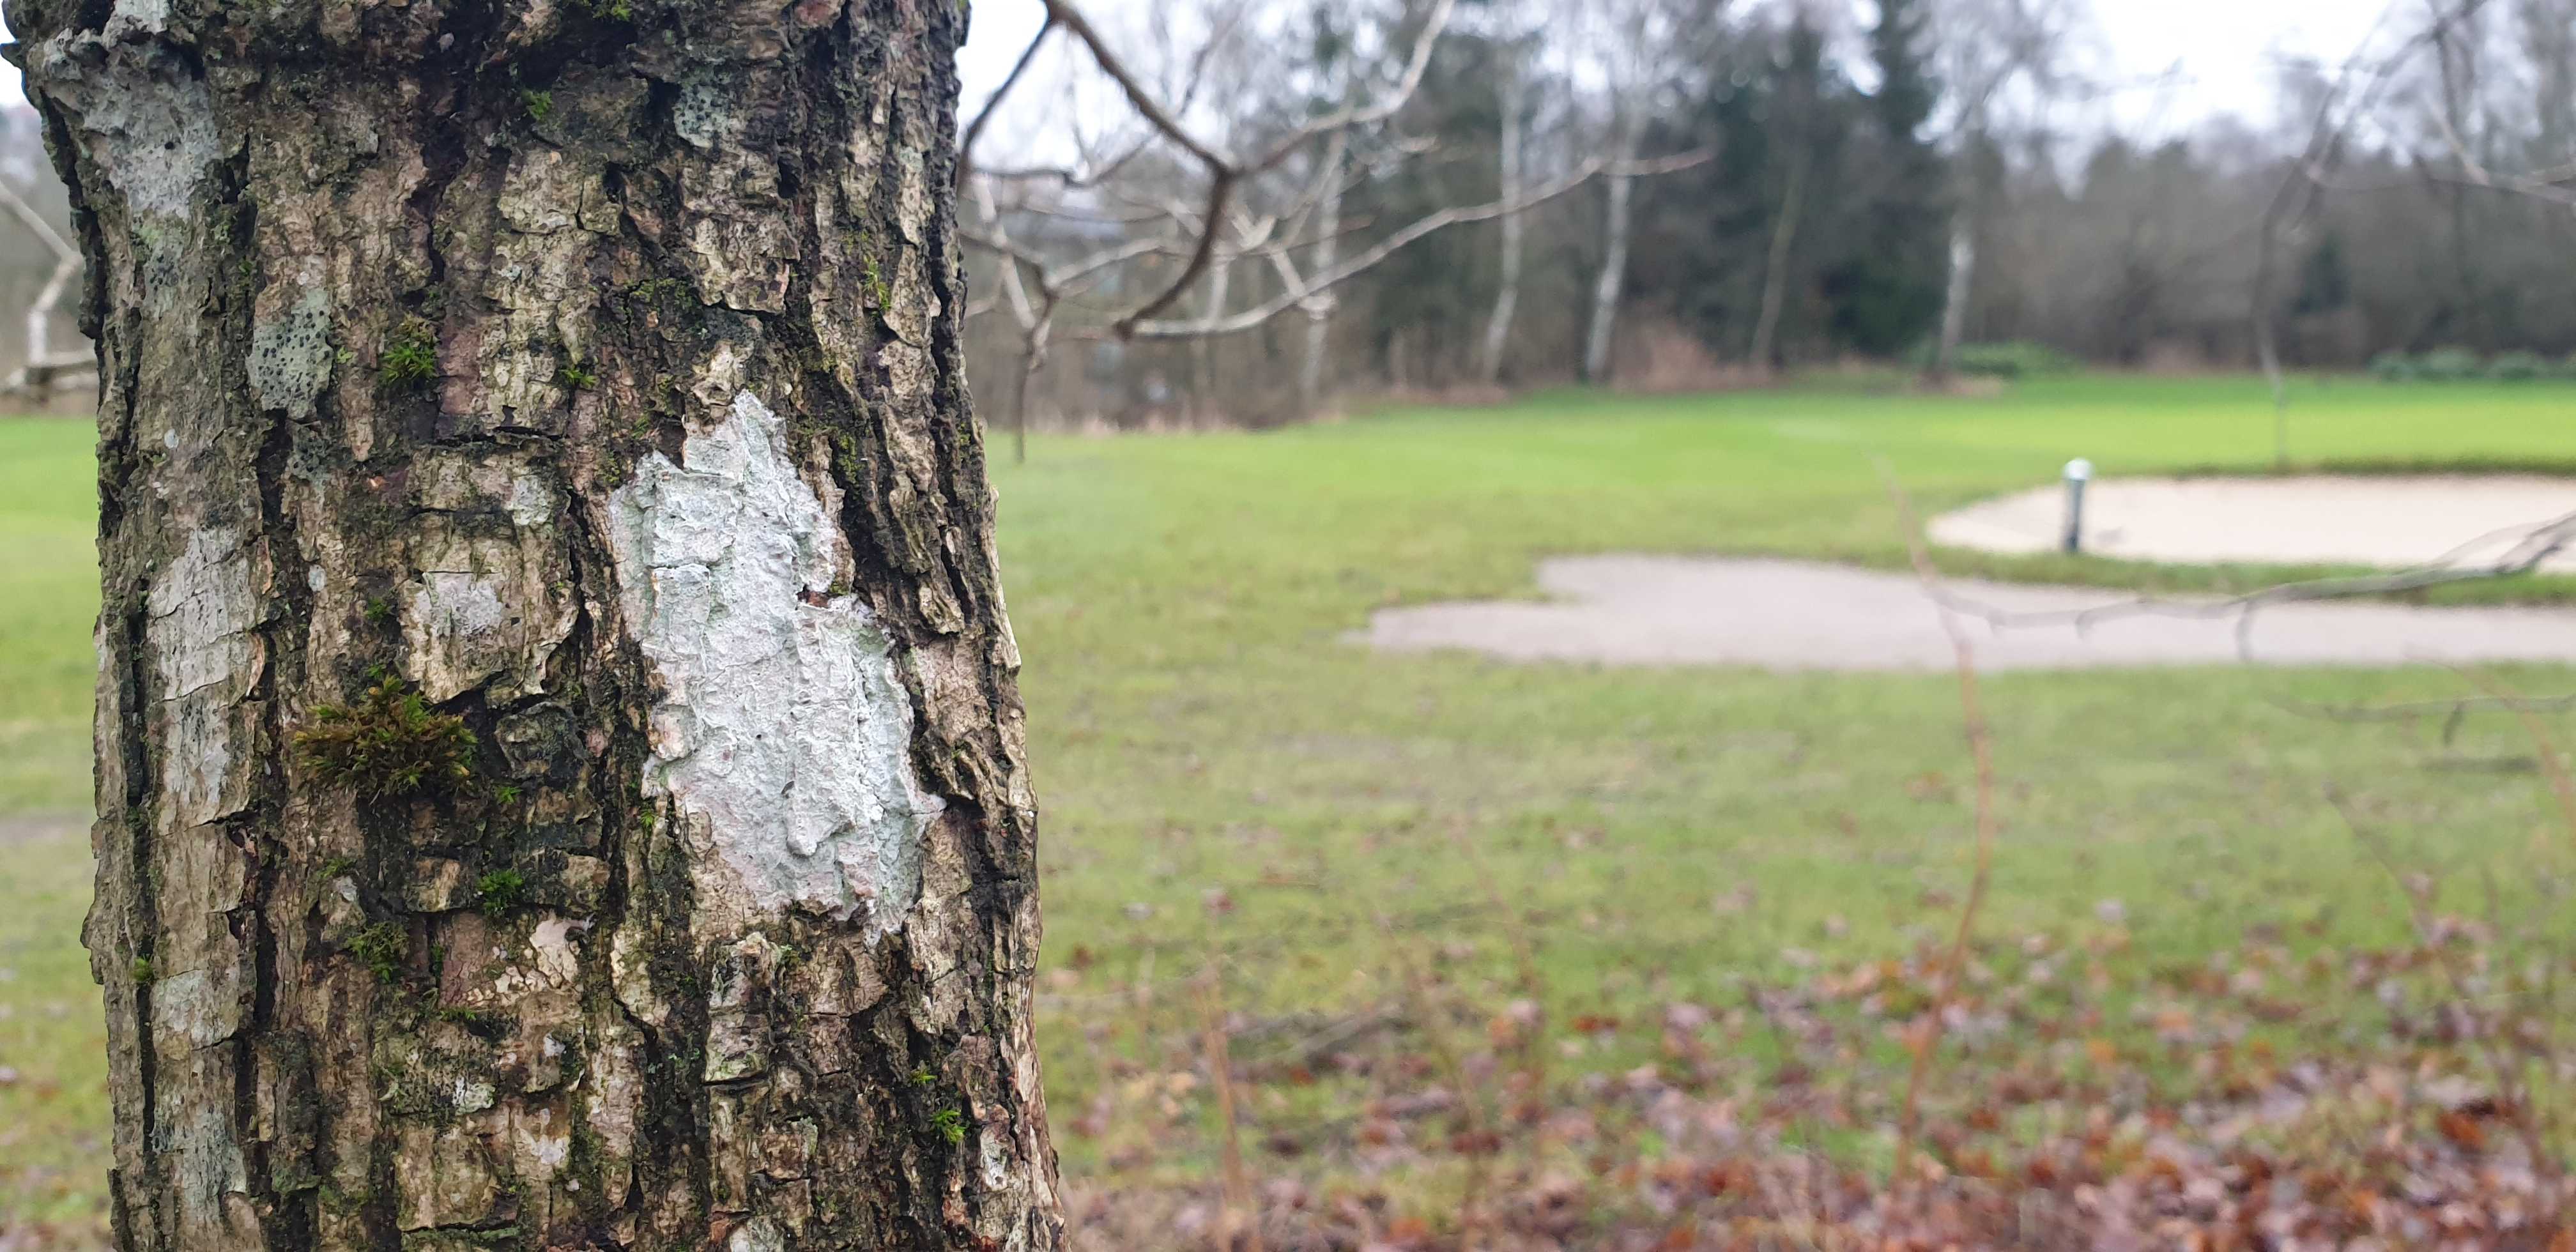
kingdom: Fungi
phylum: Ascomycota
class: Lecanoromycetes
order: Ostropales
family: Phlyctidaceae
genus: Phlyctis
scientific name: Phlyctis argena
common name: almindelig sølvlav
